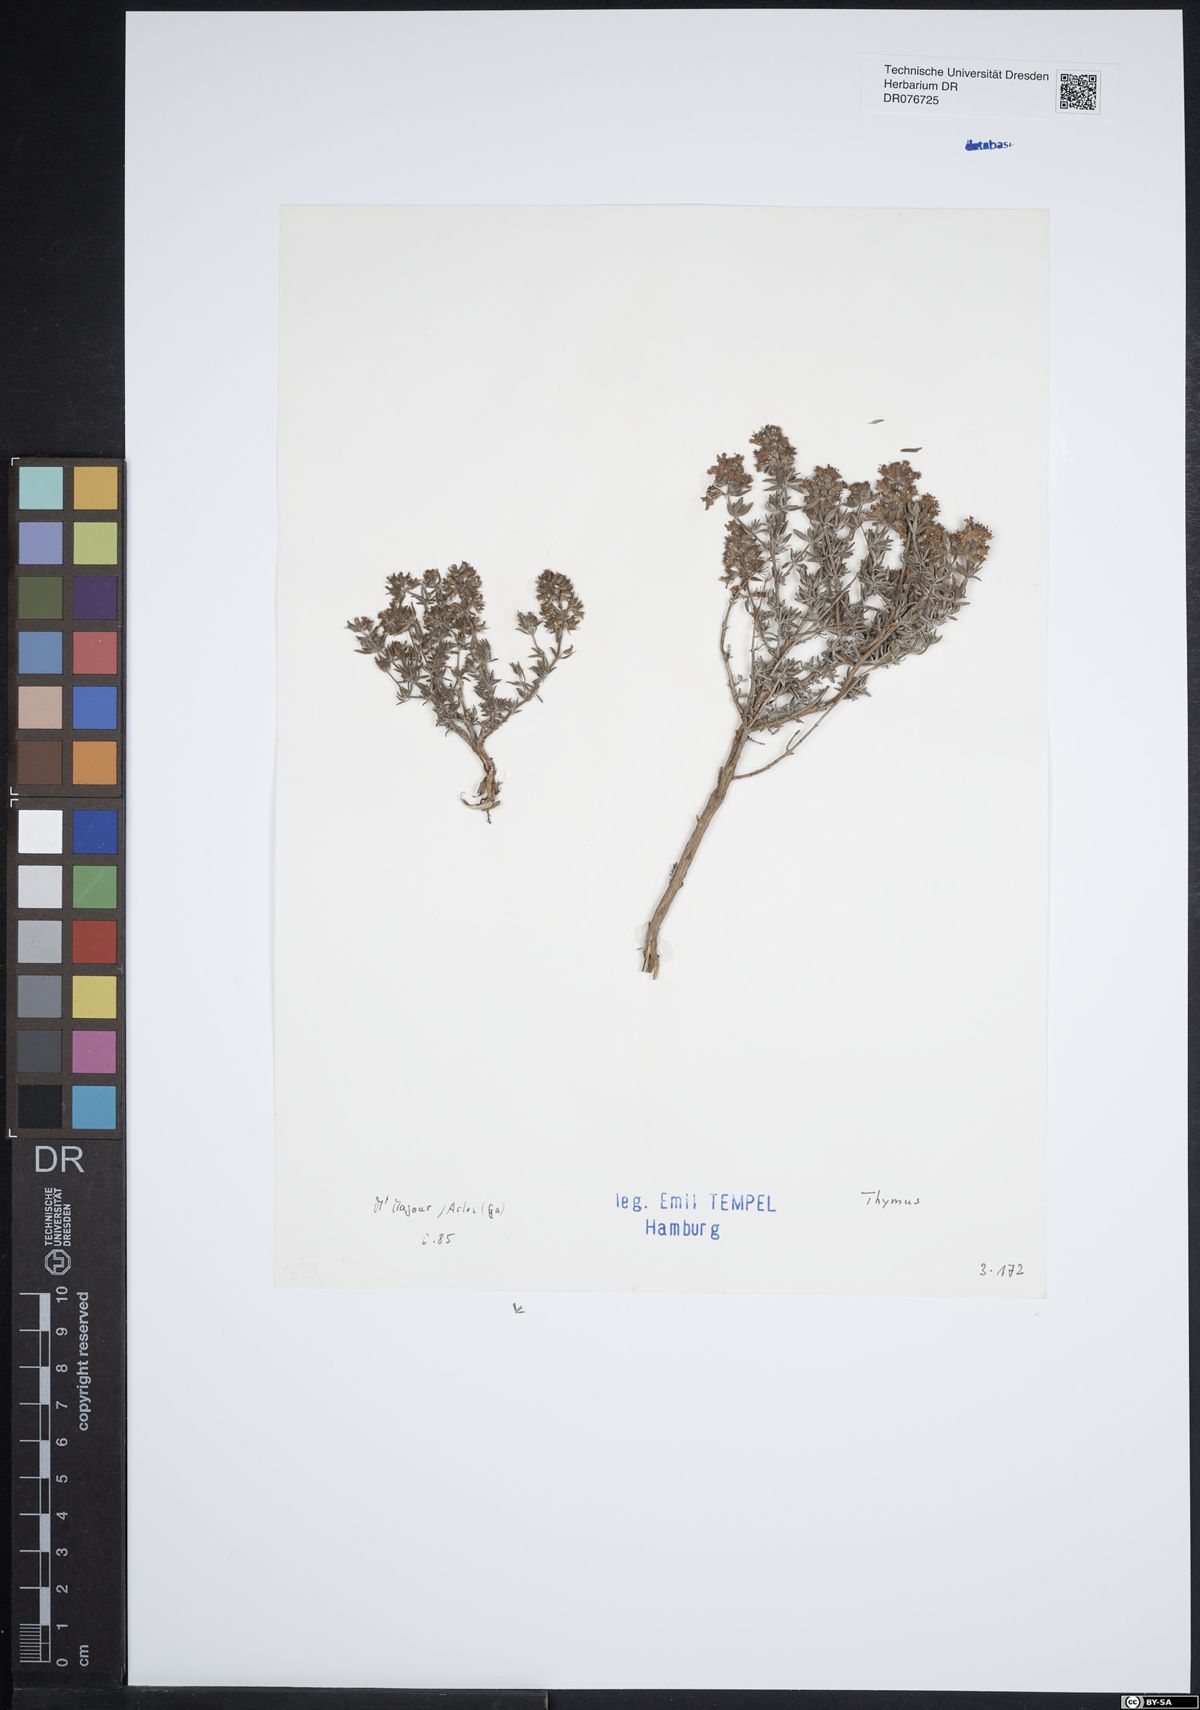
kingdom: Plantae
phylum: Tracheophyta
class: Magnoliopsida
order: Lamiales
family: Lamiaceae
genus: Thymus
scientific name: Thymus
